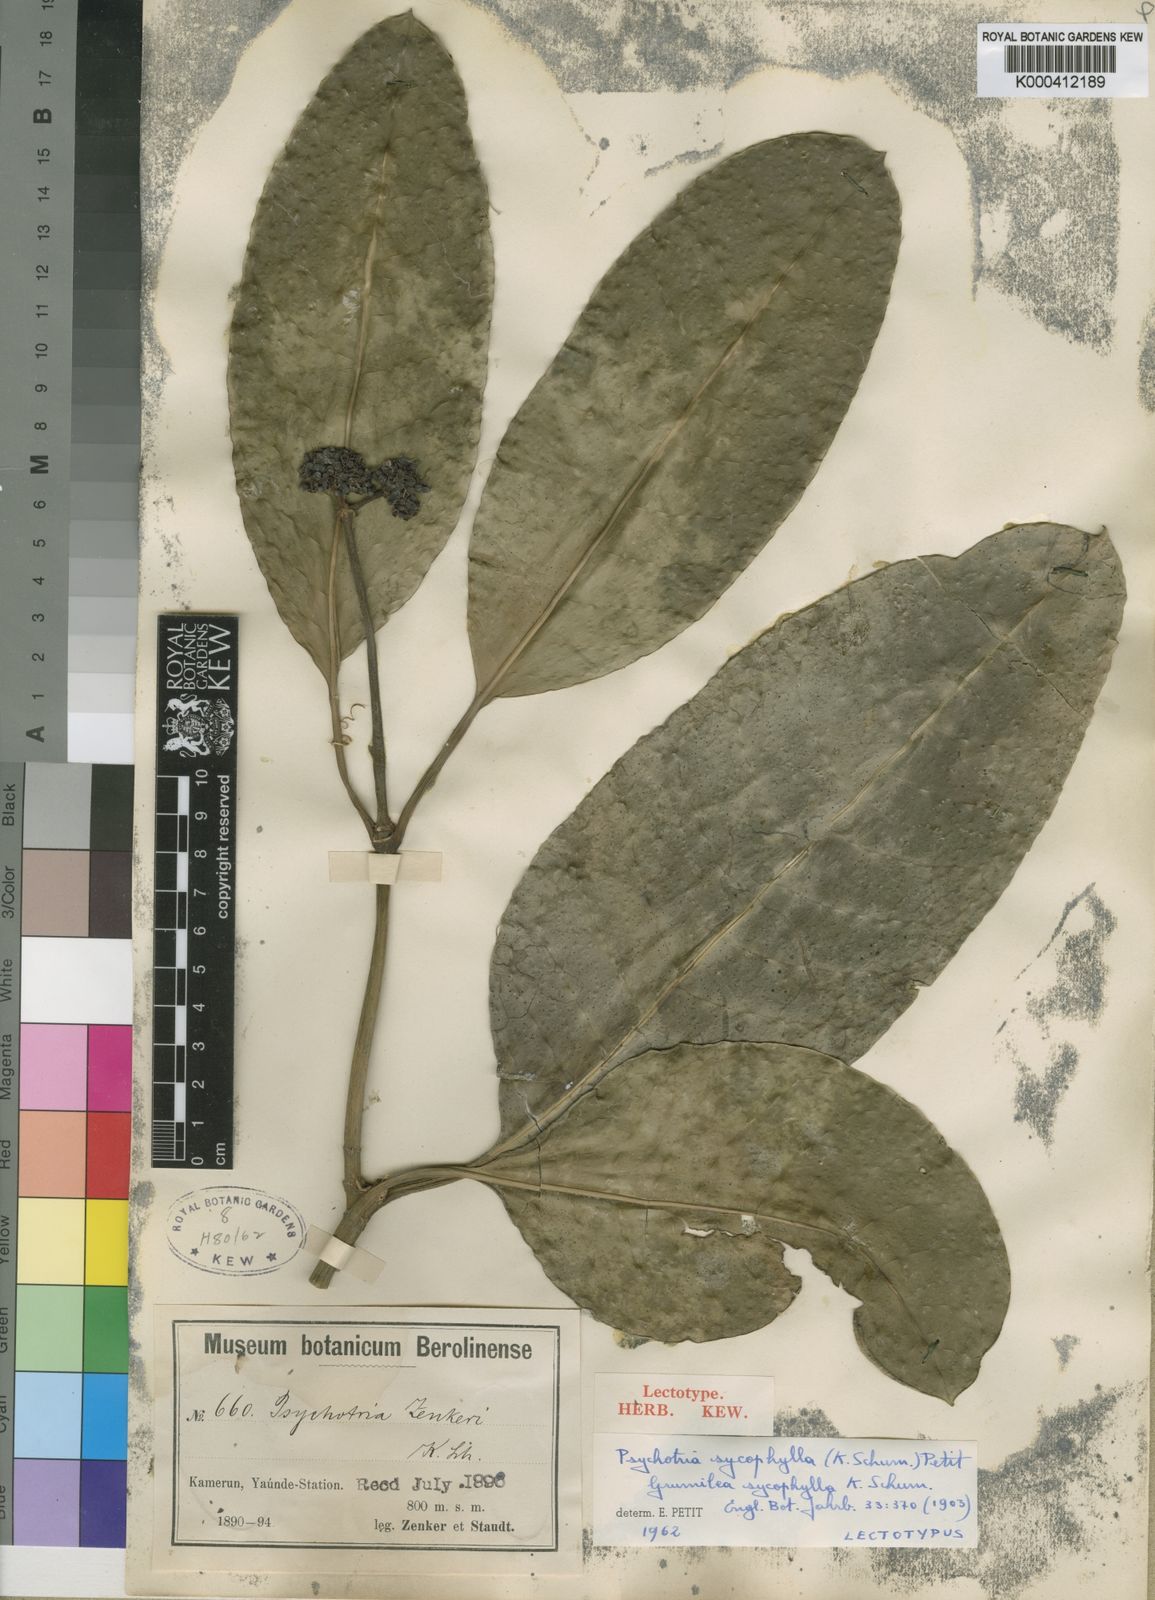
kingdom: Plantae
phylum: Tracheophyta
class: Magnoliopsida
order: Gentianales
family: Rubiaceae
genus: Psychotria
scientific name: Psychotria sycophylla
